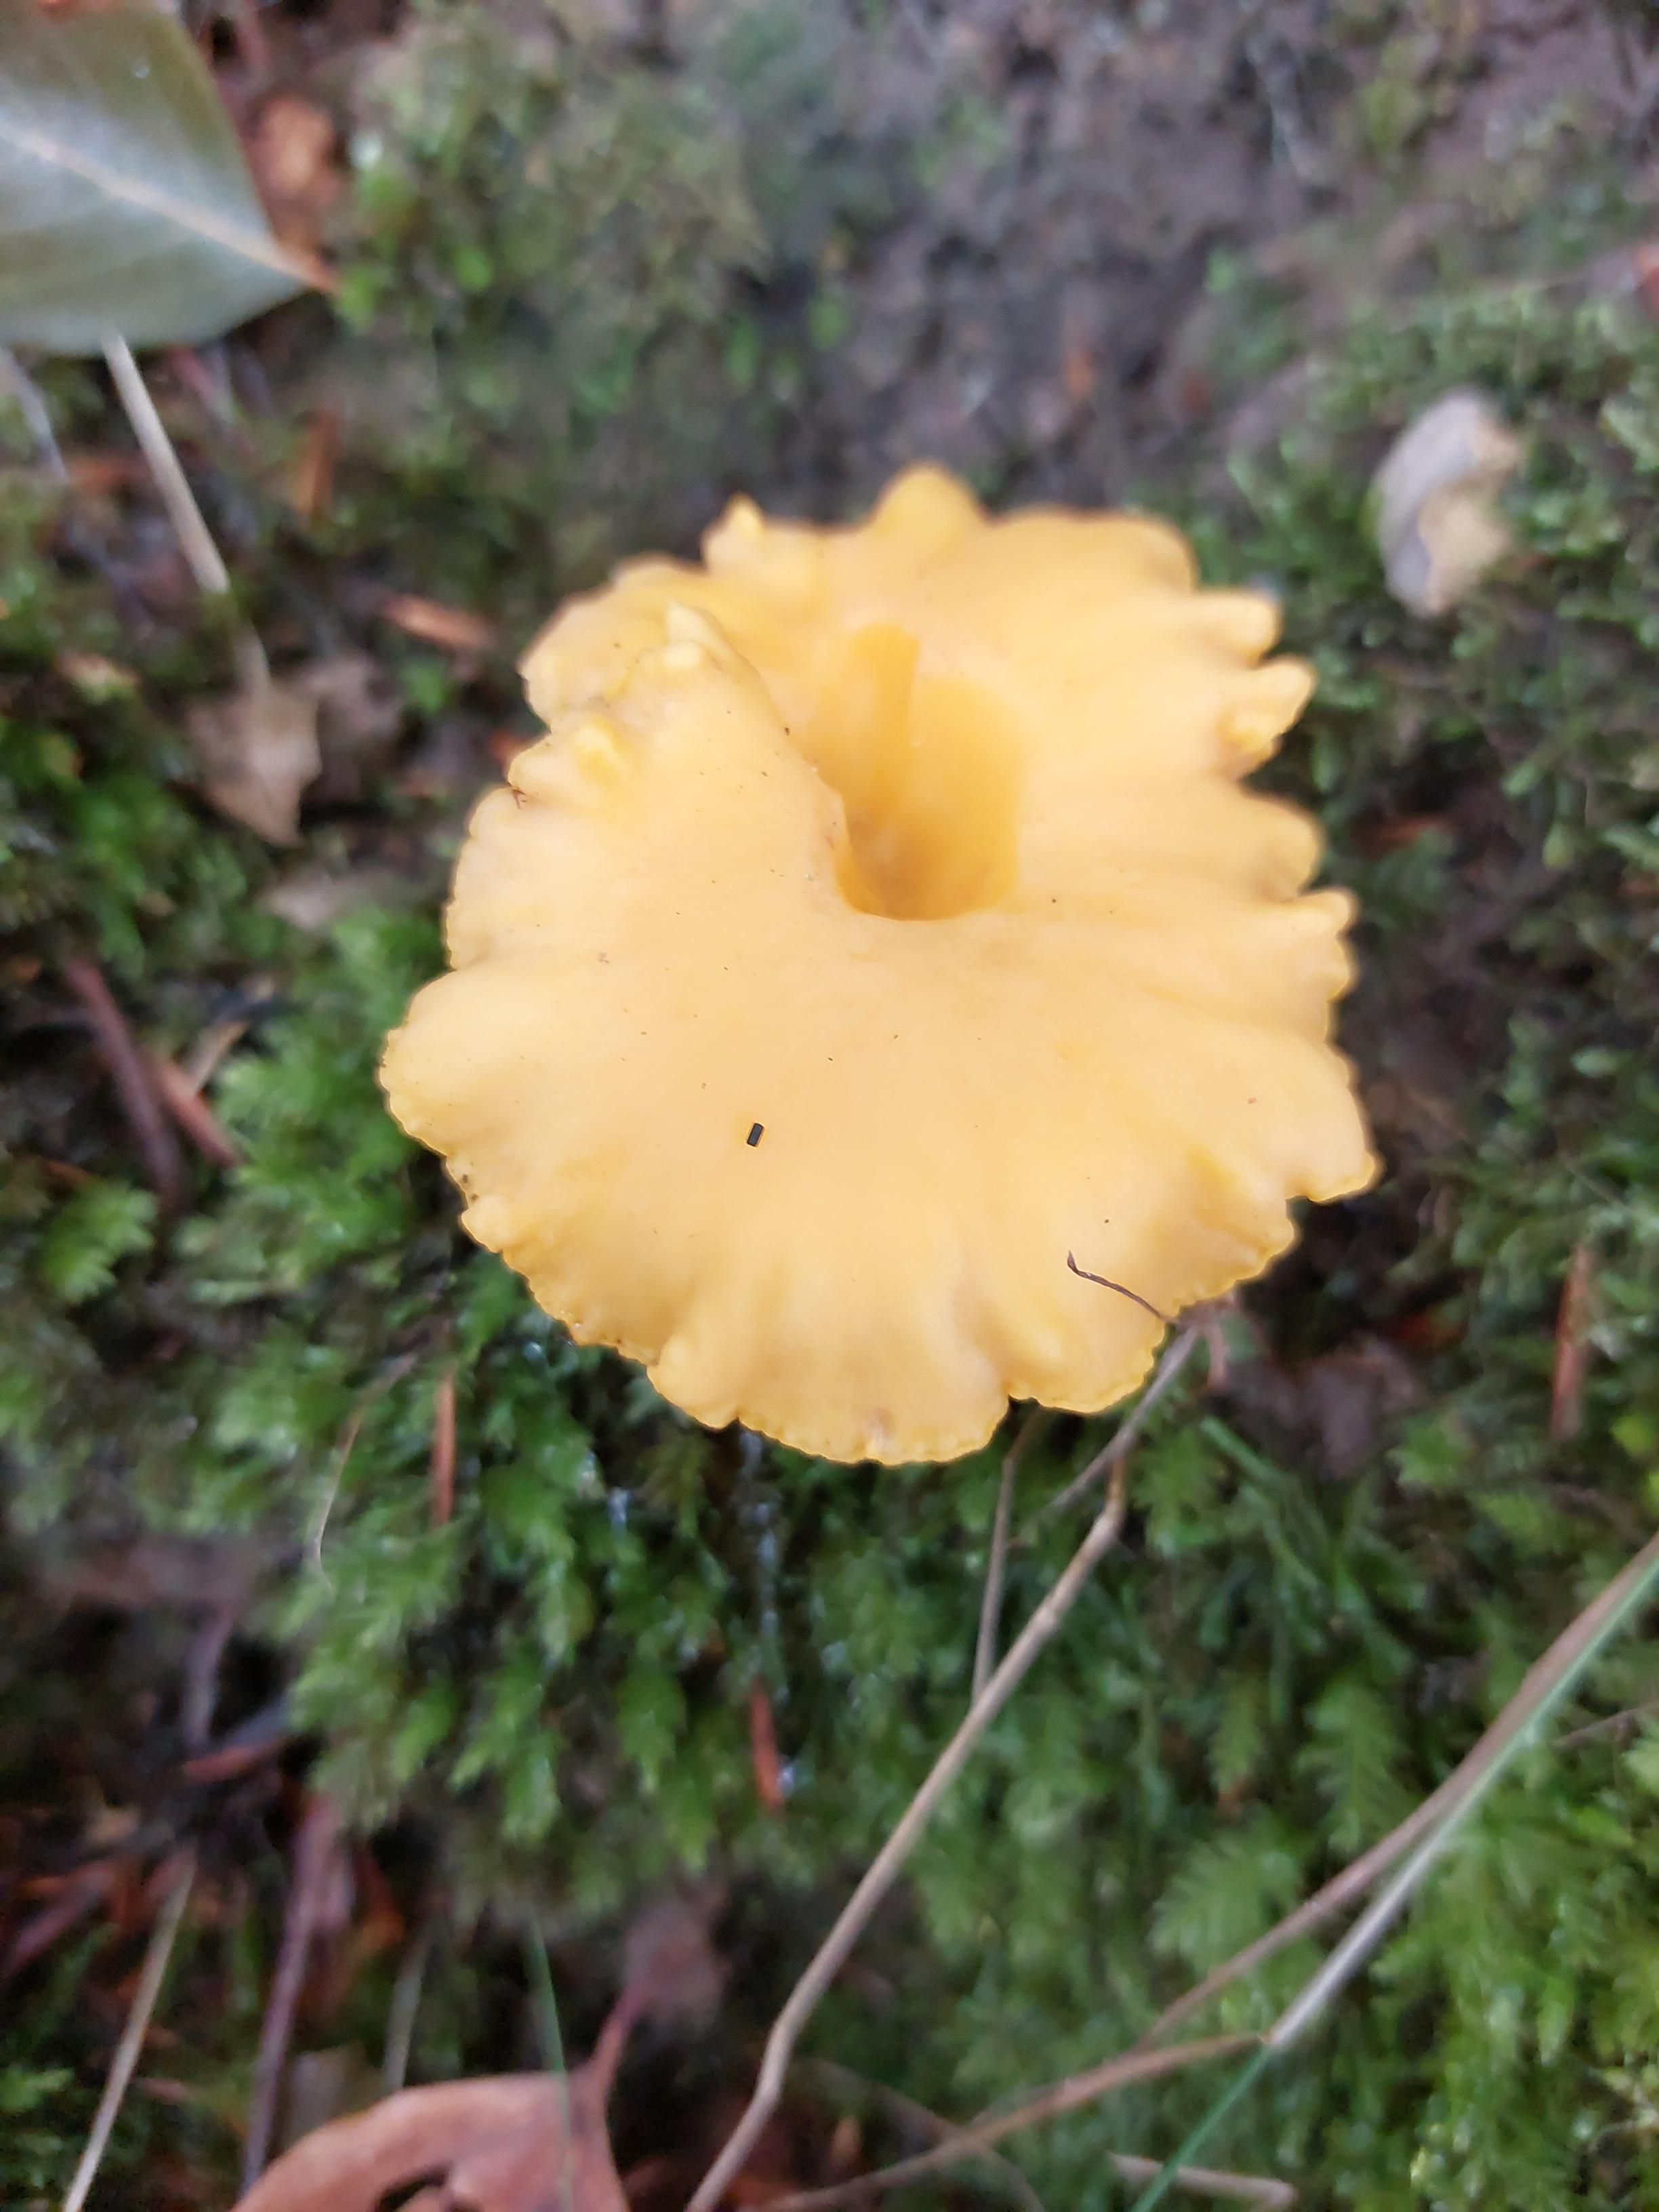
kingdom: Fungi
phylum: Basidiomycota
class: Agaricomycetes
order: Cantharellales
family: Hydnaceae
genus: Cantharellus
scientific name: Cantharellus cibarius
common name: almindelig kantarel
